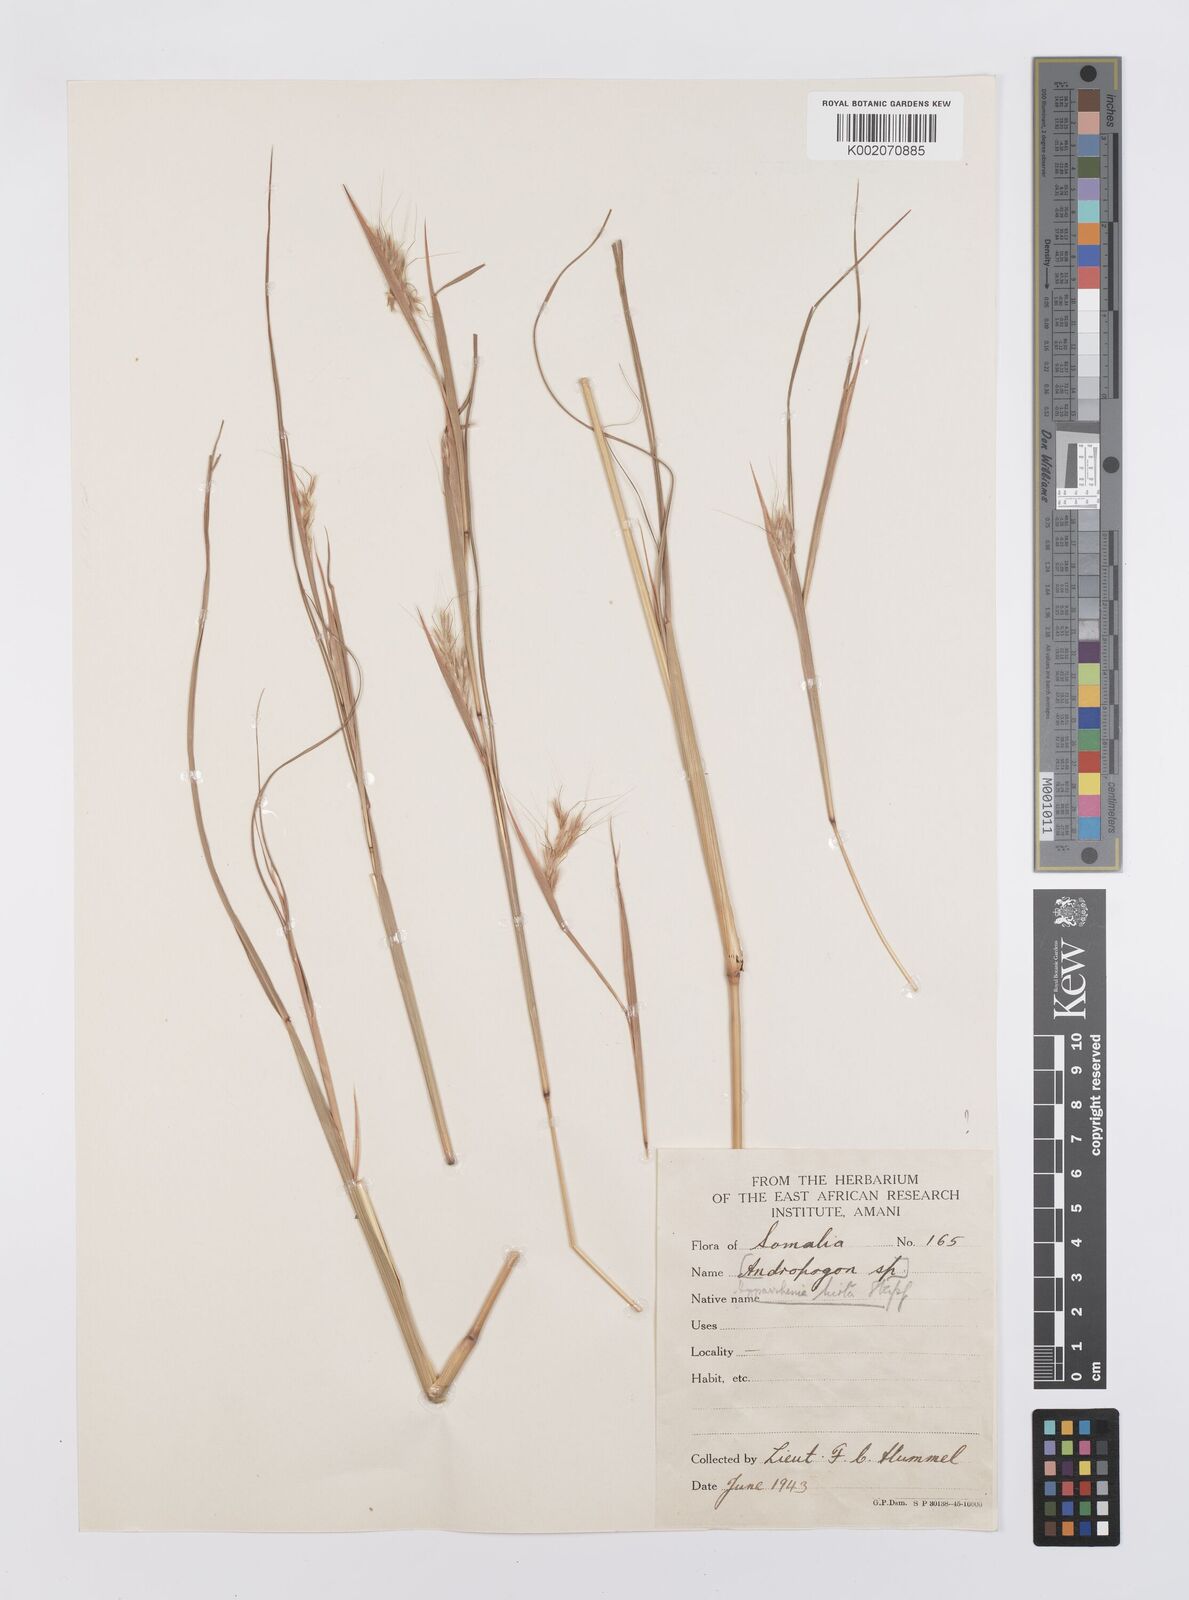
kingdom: Plantae
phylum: Tracheophyta
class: Liliopsida
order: Poales
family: Poaceae
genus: Hyparrhenia
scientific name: Hyparrhenia hirta
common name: Thatching grass
